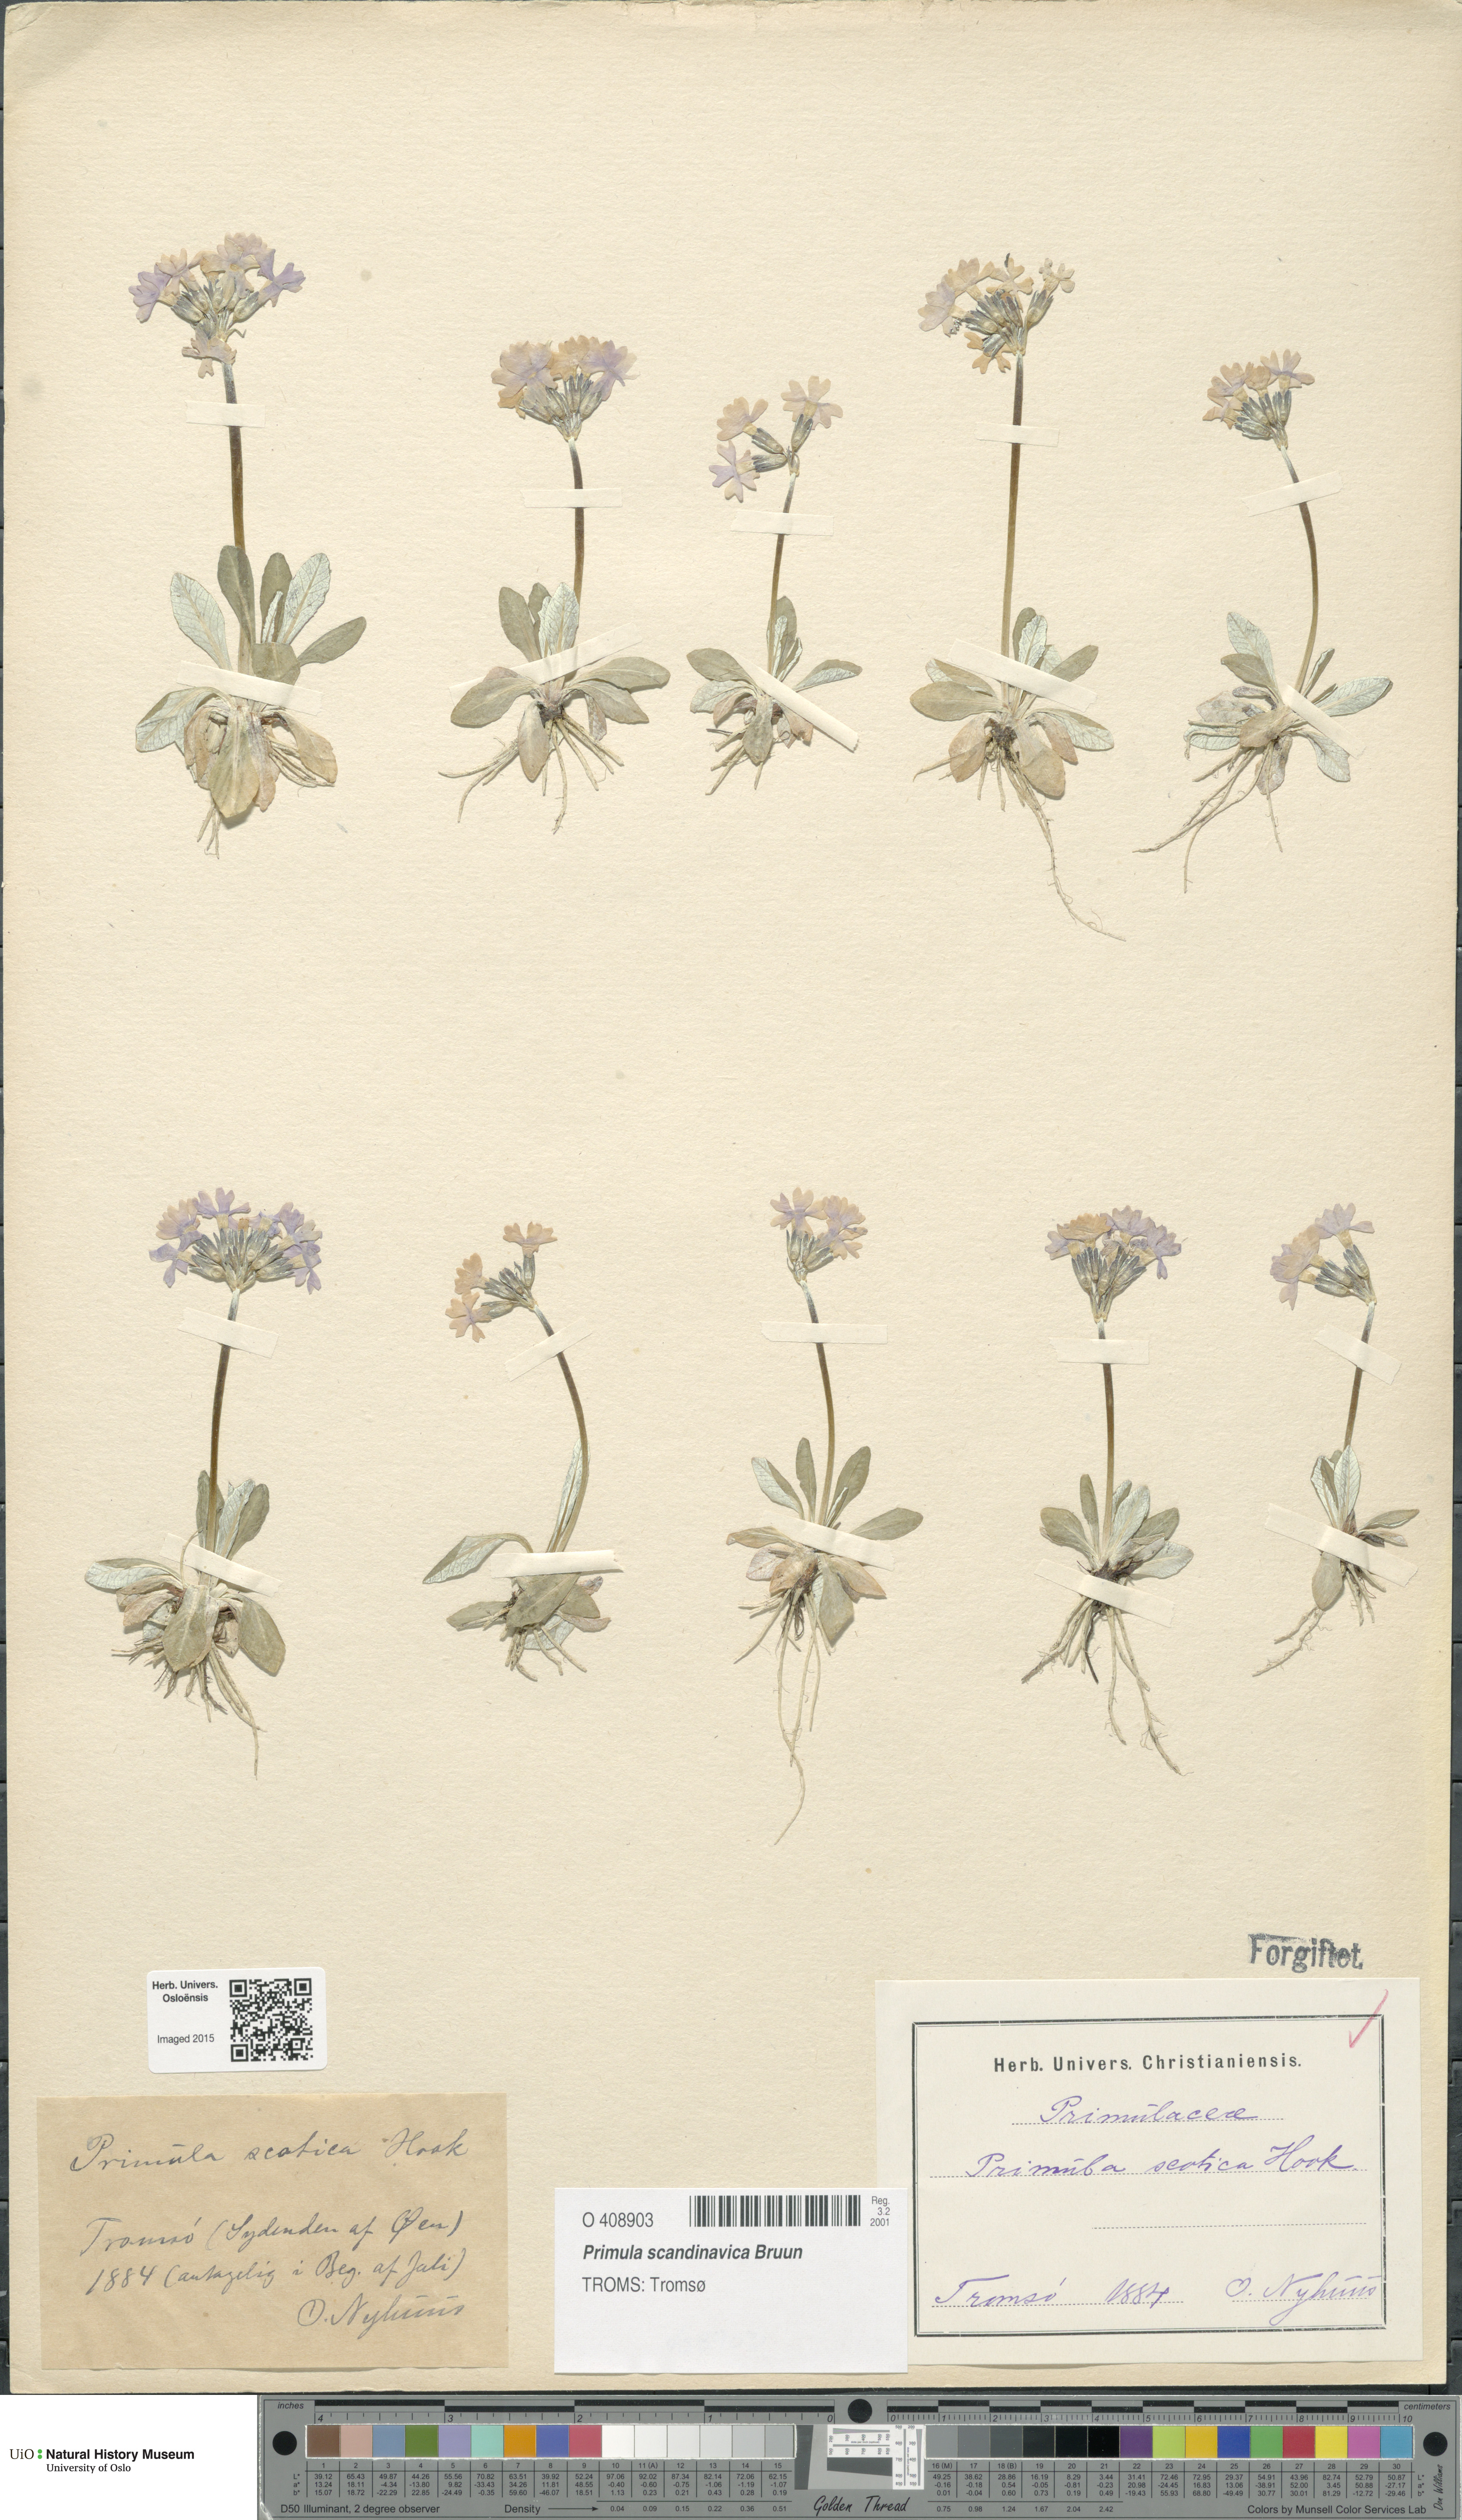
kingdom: Plantae
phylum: Tracheophyta
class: Magnoliopsida
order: Ericales
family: Primulaceae
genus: Primula
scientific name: Primula scandinavica
